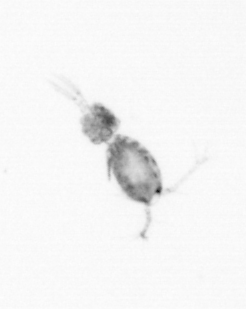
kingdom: Animalia
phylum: Arthropoda
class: Copepoda
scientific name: Copepoda
